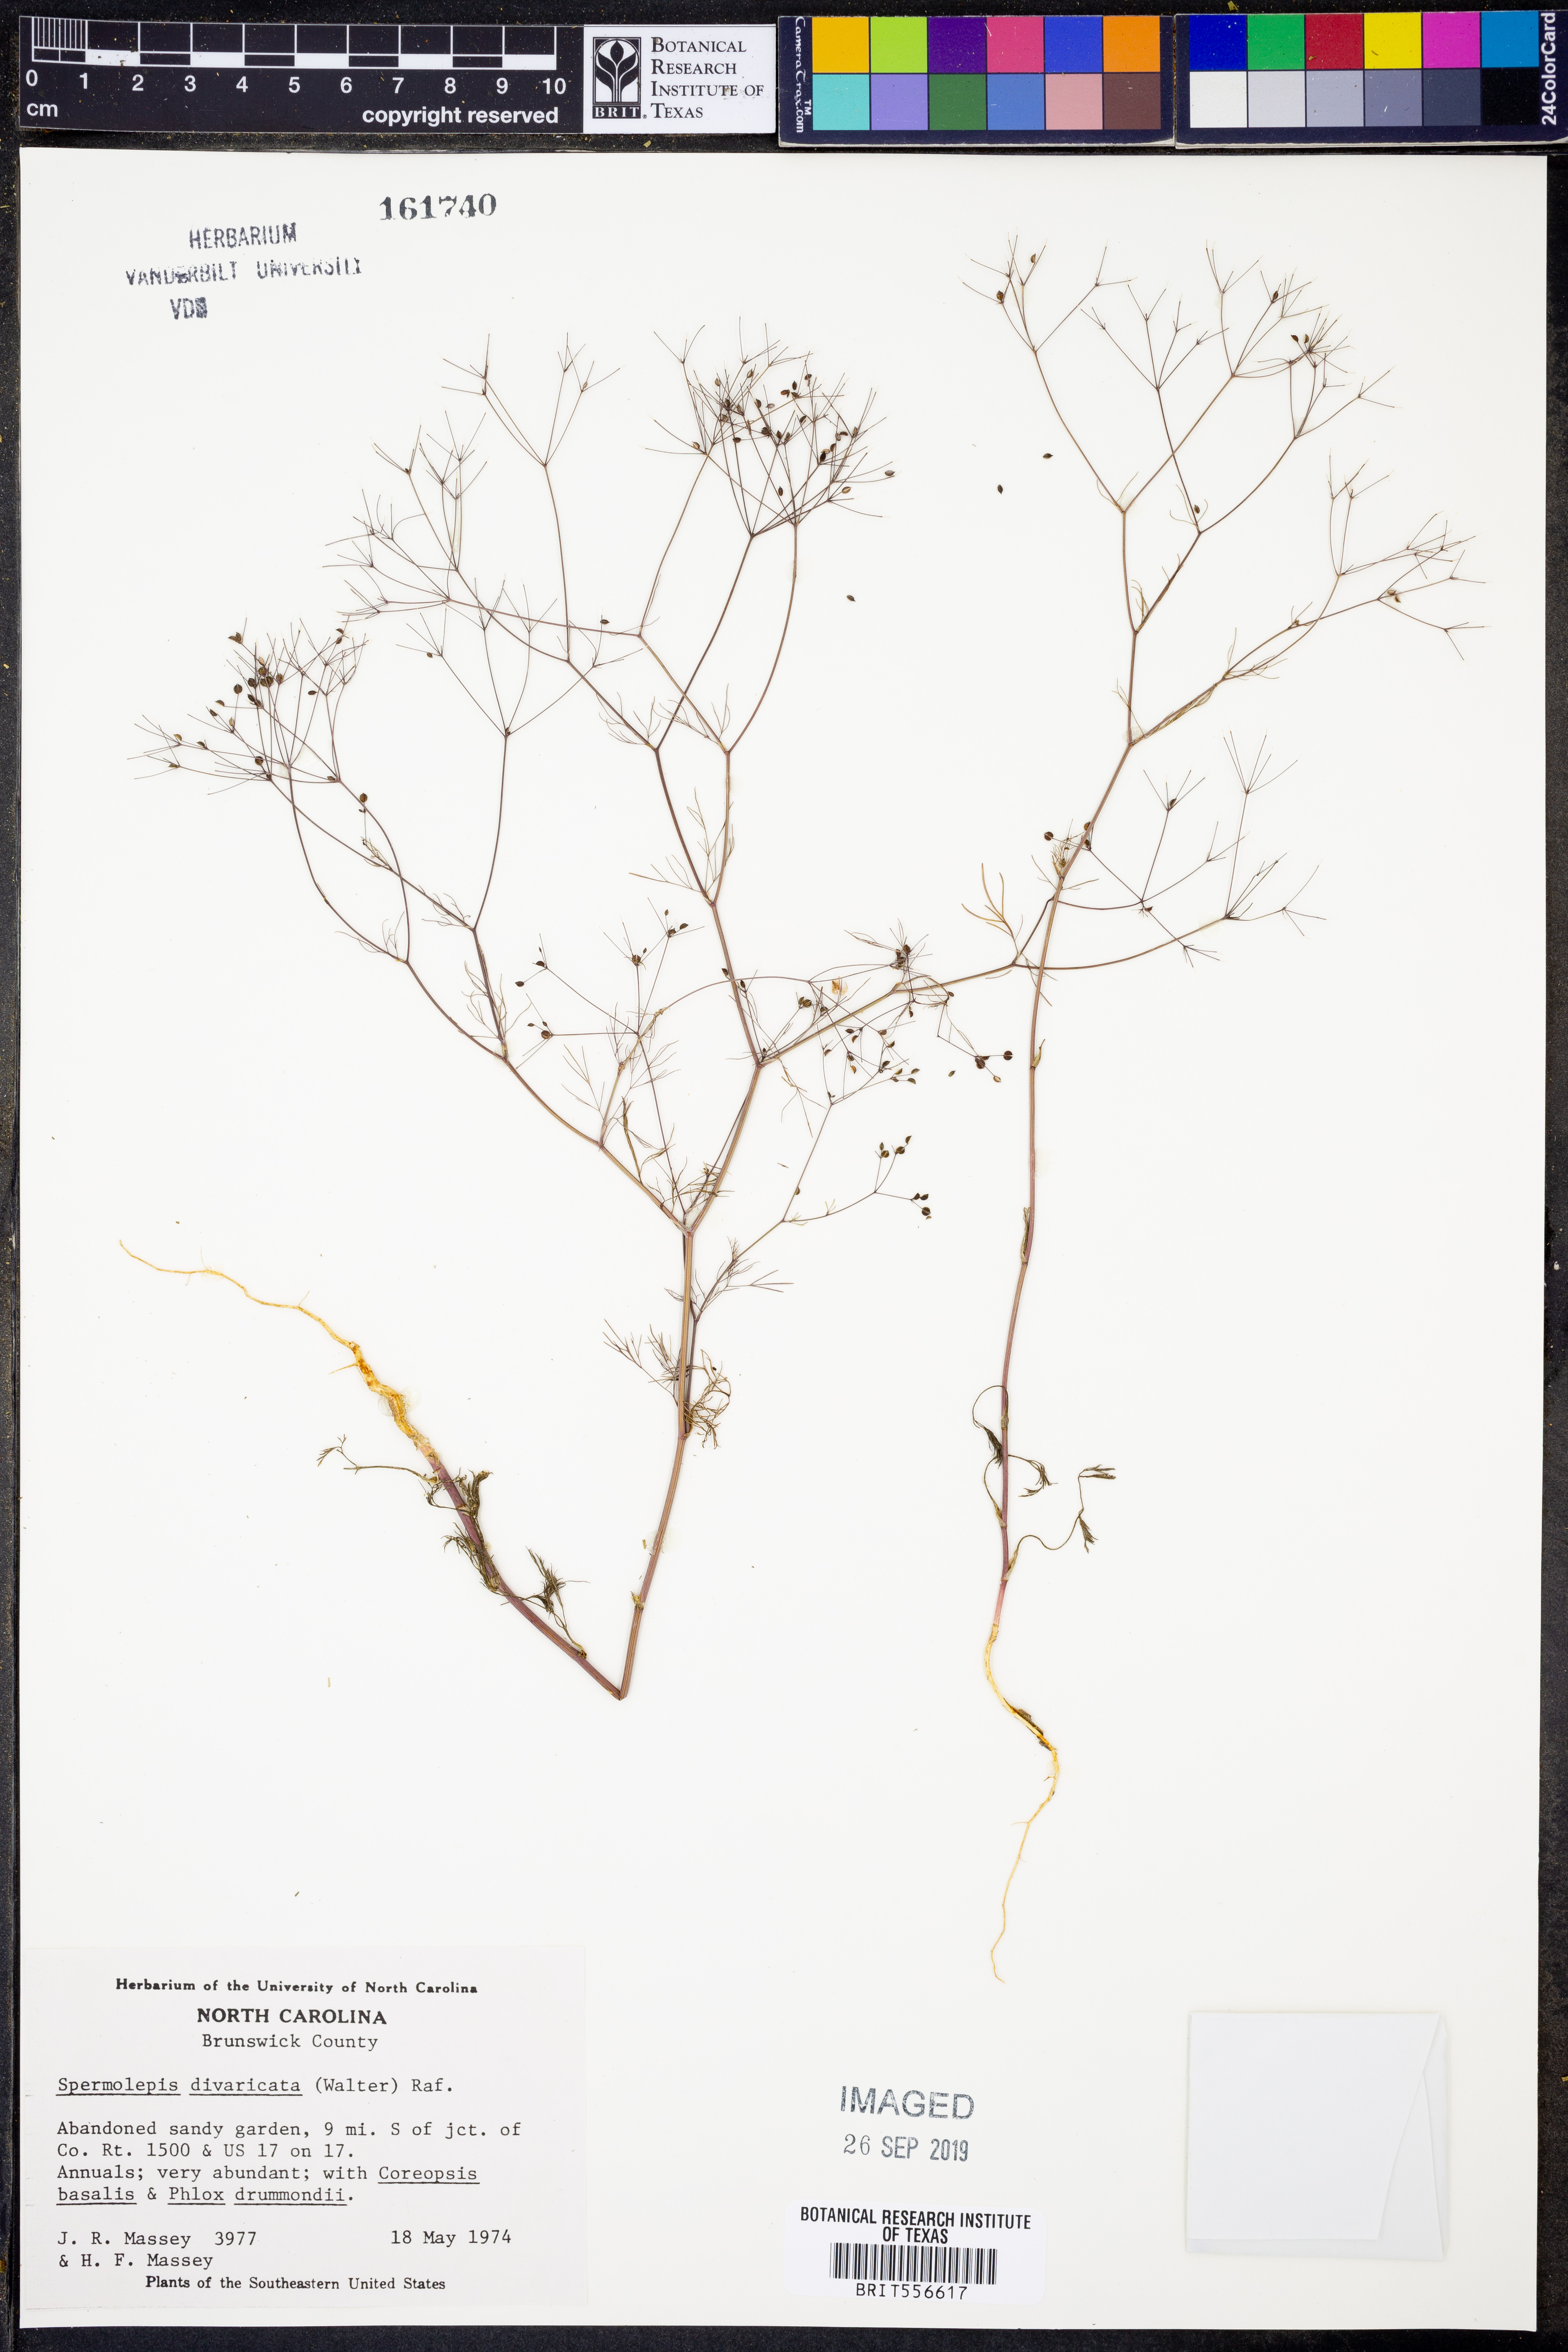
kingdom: Plantae
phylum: Tracheophyta
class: Magnoliopsida
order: Apiales
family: Apiaceae
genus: Spermolepis
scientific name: Spermolepis divaricata
